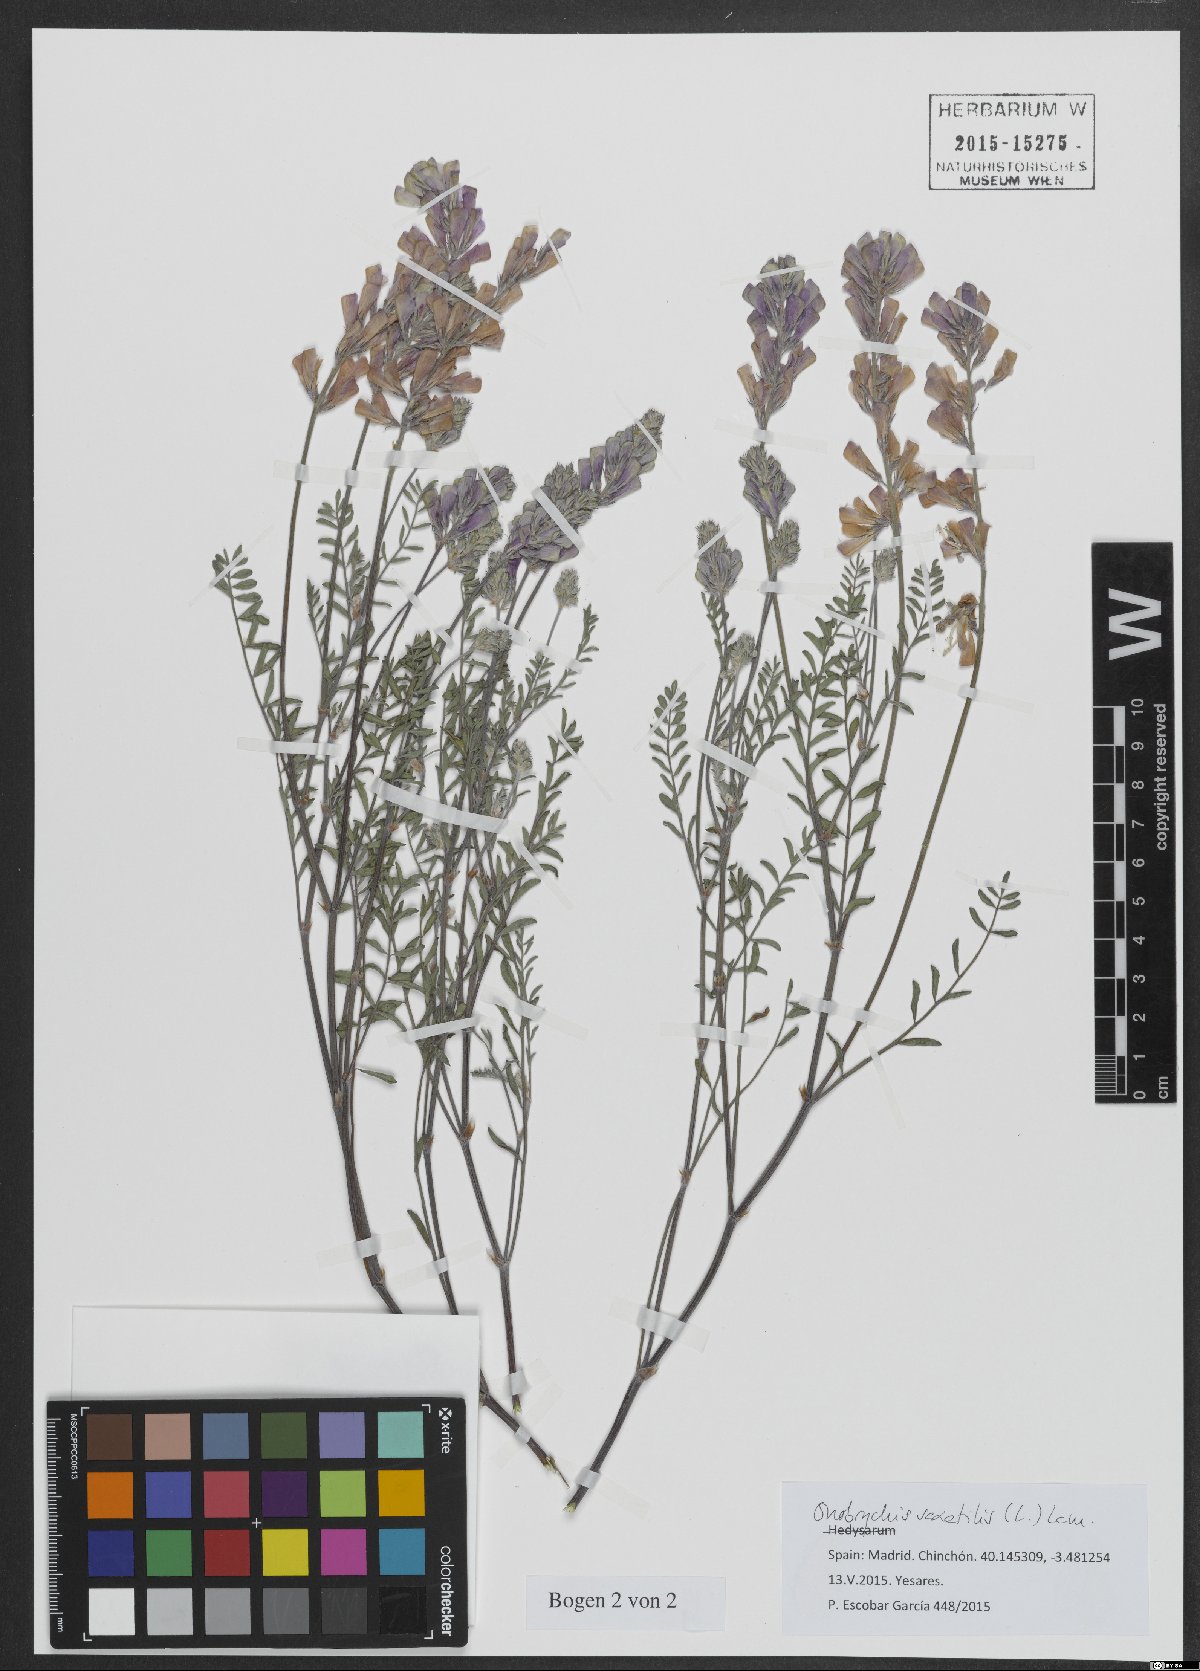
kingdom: Plantae
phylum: Tracheophyta
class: Magnoliopsida
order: Fabales
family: Fabaceae
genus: Onobrychis
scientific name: Onobrychis saxatilis
